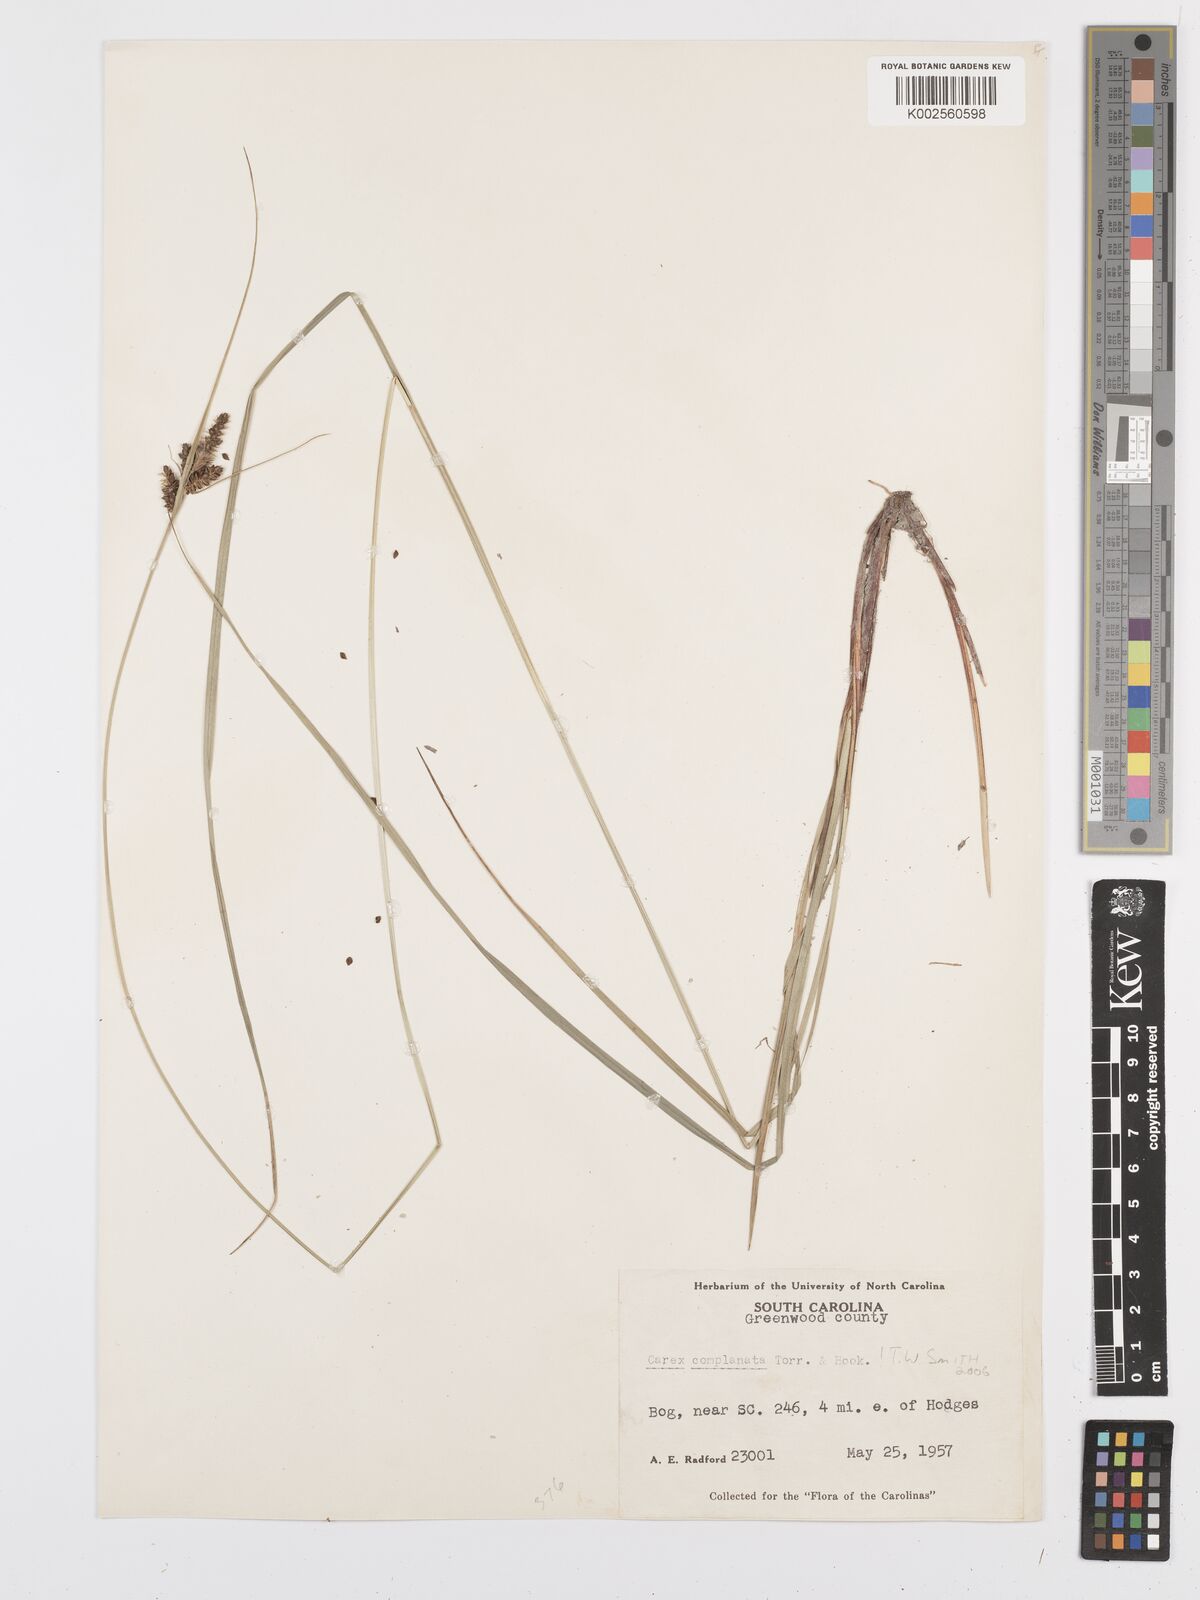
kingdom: Plantae
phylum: Tracheophyta
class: Liliopsida
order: Poales
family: Cyperaceae
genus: Carex
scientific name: Carex complanata
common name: Hirsute sedge
